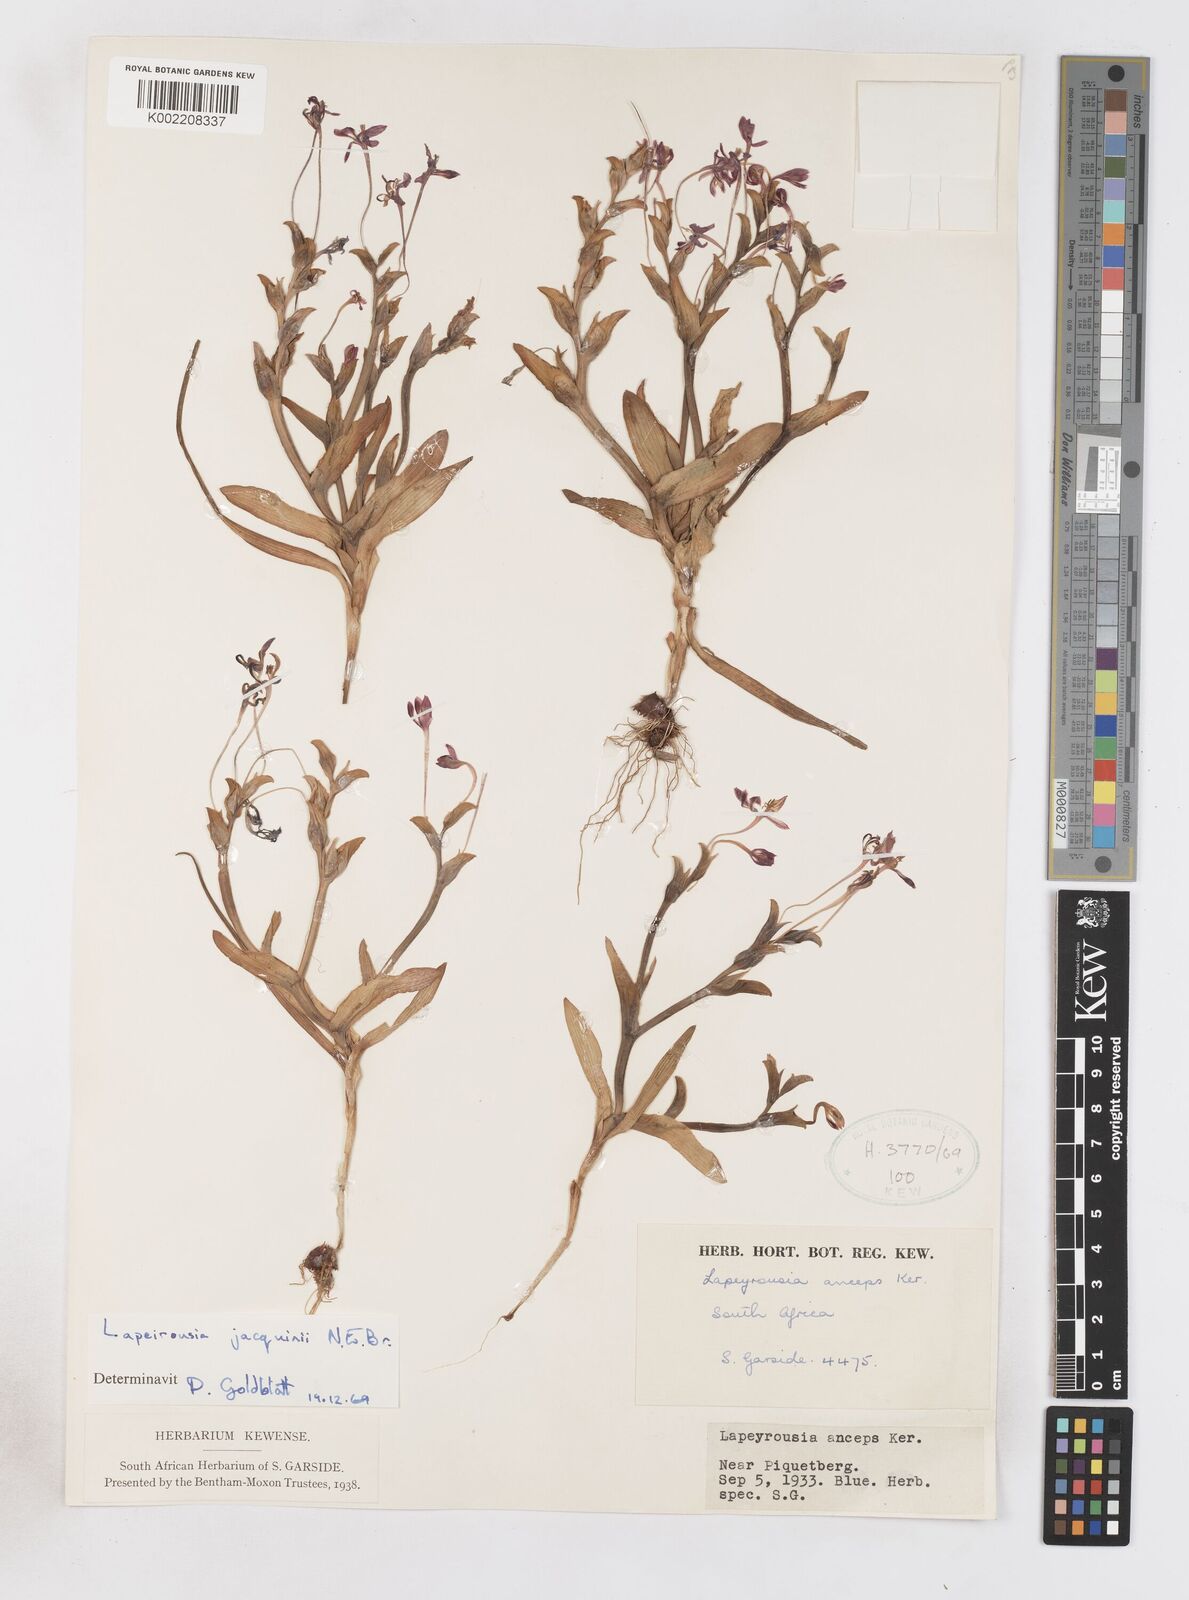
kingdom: Plantae
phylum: Tracheophyta
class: Liliopsida
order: Asparagales
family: Iridaceae
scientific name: Iridaceae
